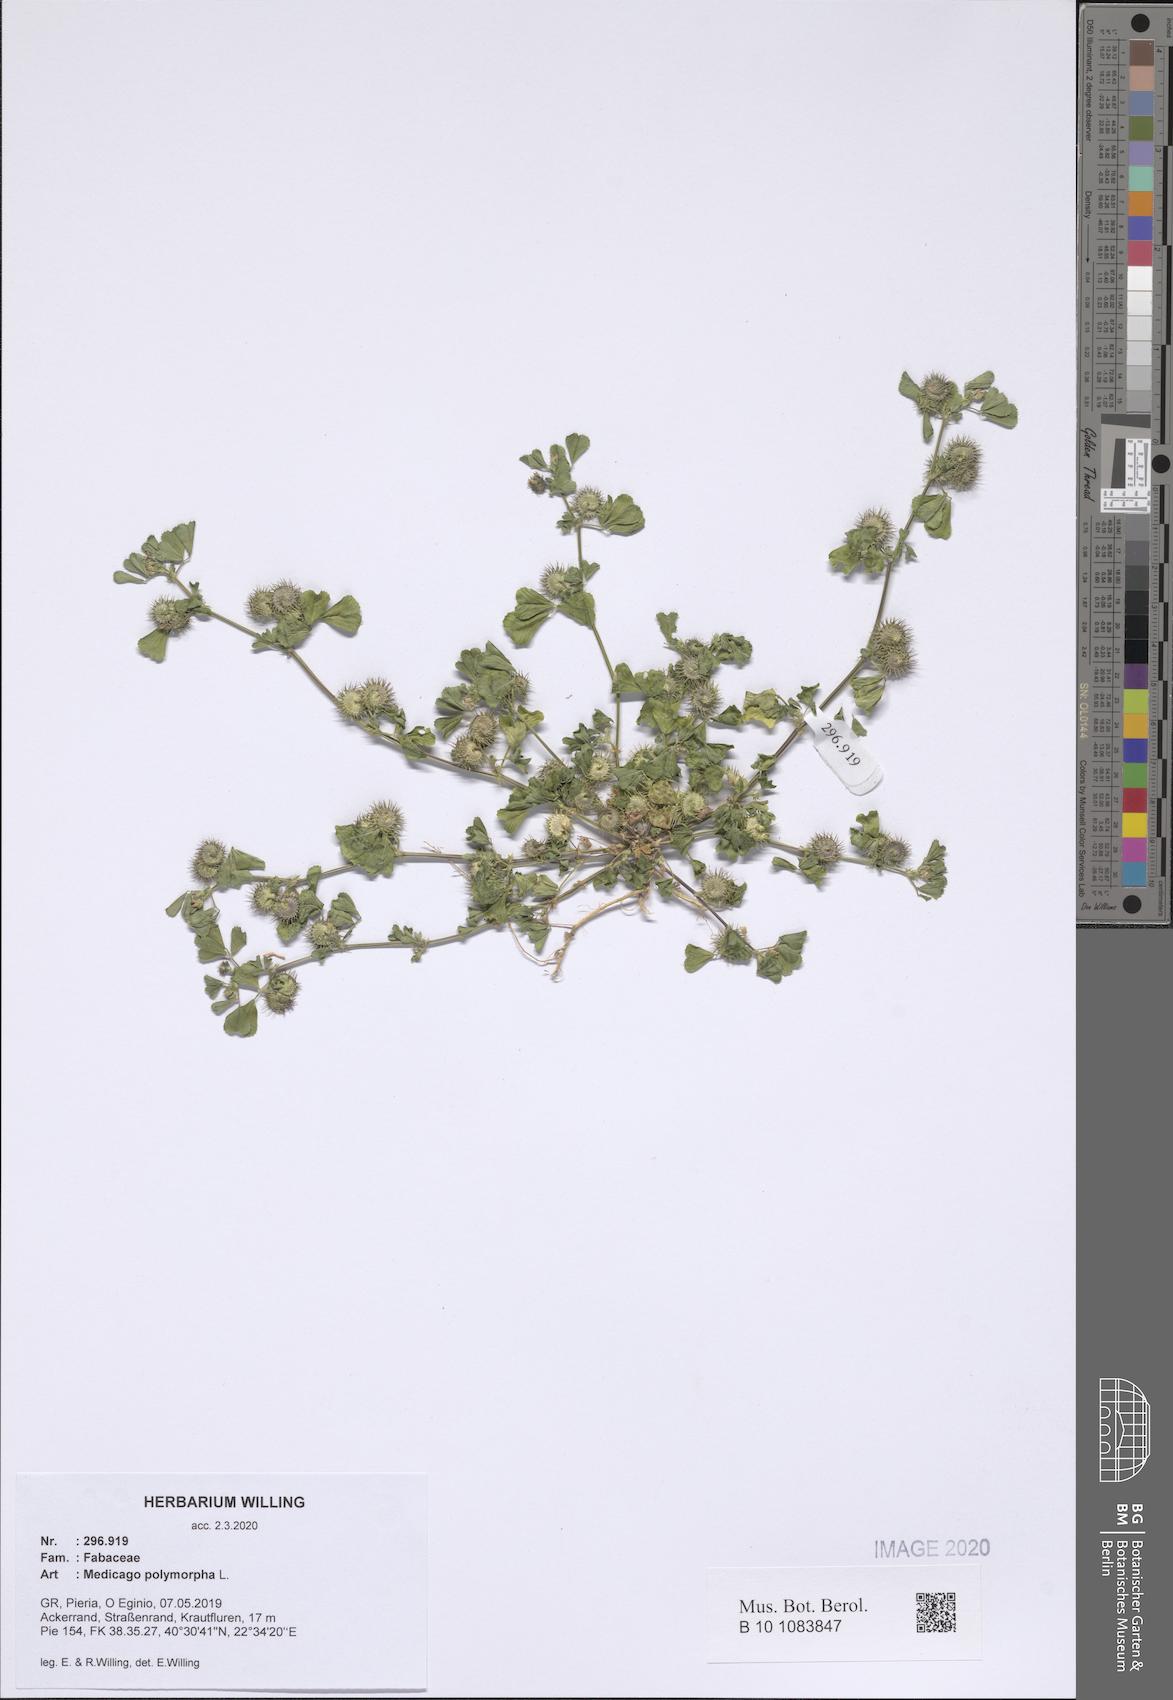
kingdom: Plantae
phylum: Tracheophyta
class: Magnoliopsida
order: Fabales
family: Fabaceae
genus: Medicago
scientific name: Medicago polymorpha
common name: Burclover
